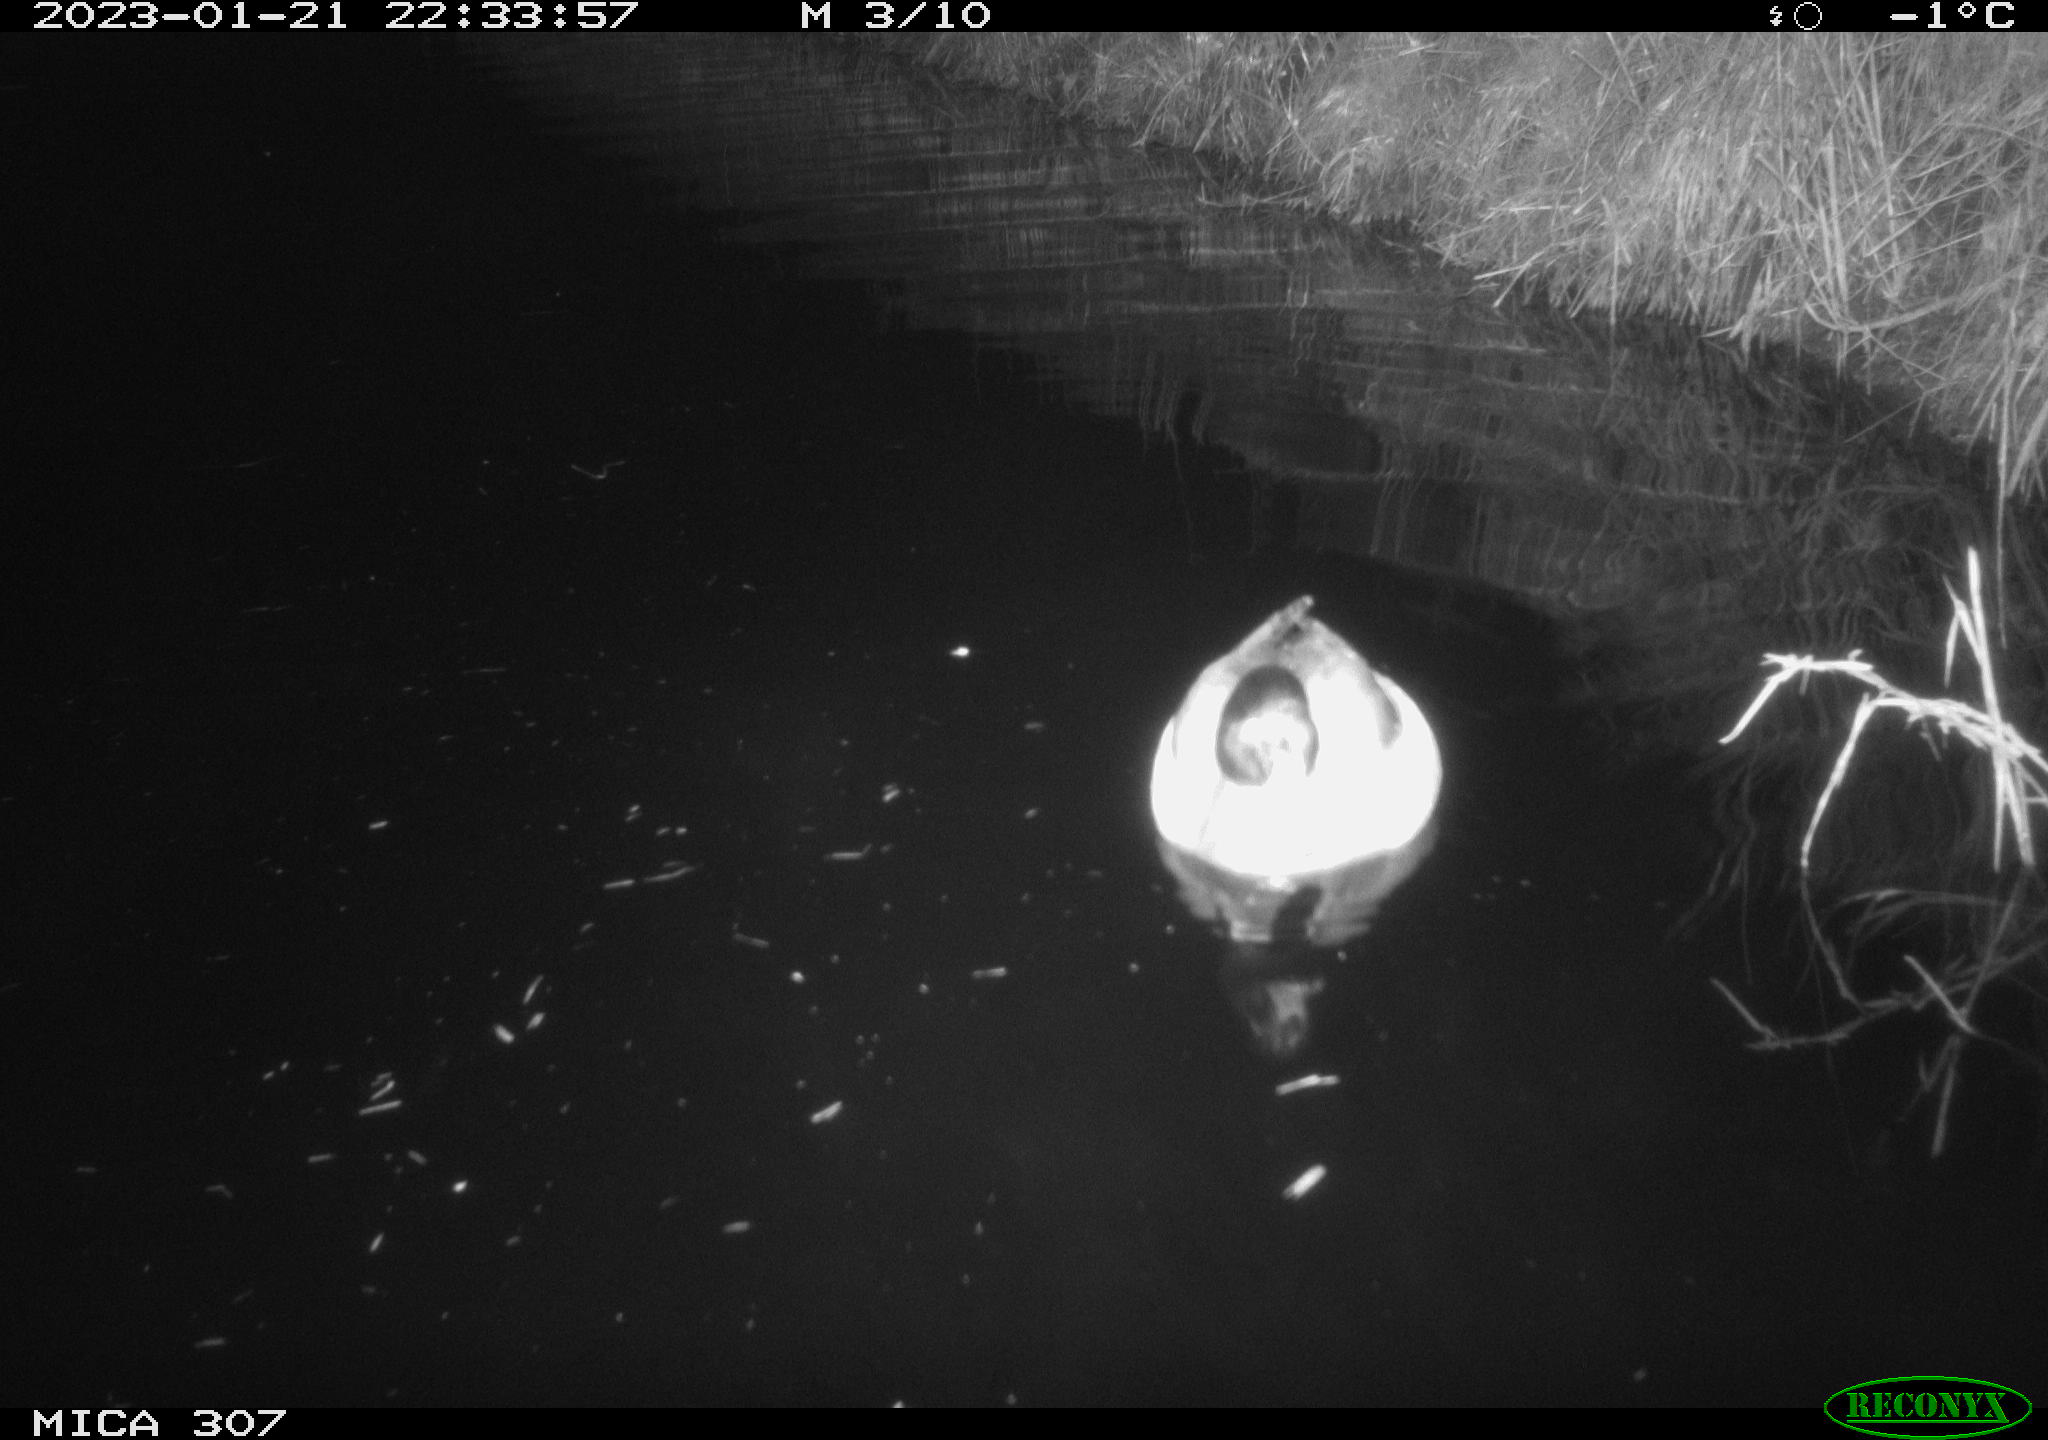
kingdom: Animalia
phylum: Chordata
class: Aves
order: Anseriformes
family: Anatidae
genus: Anas
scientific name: Anas
